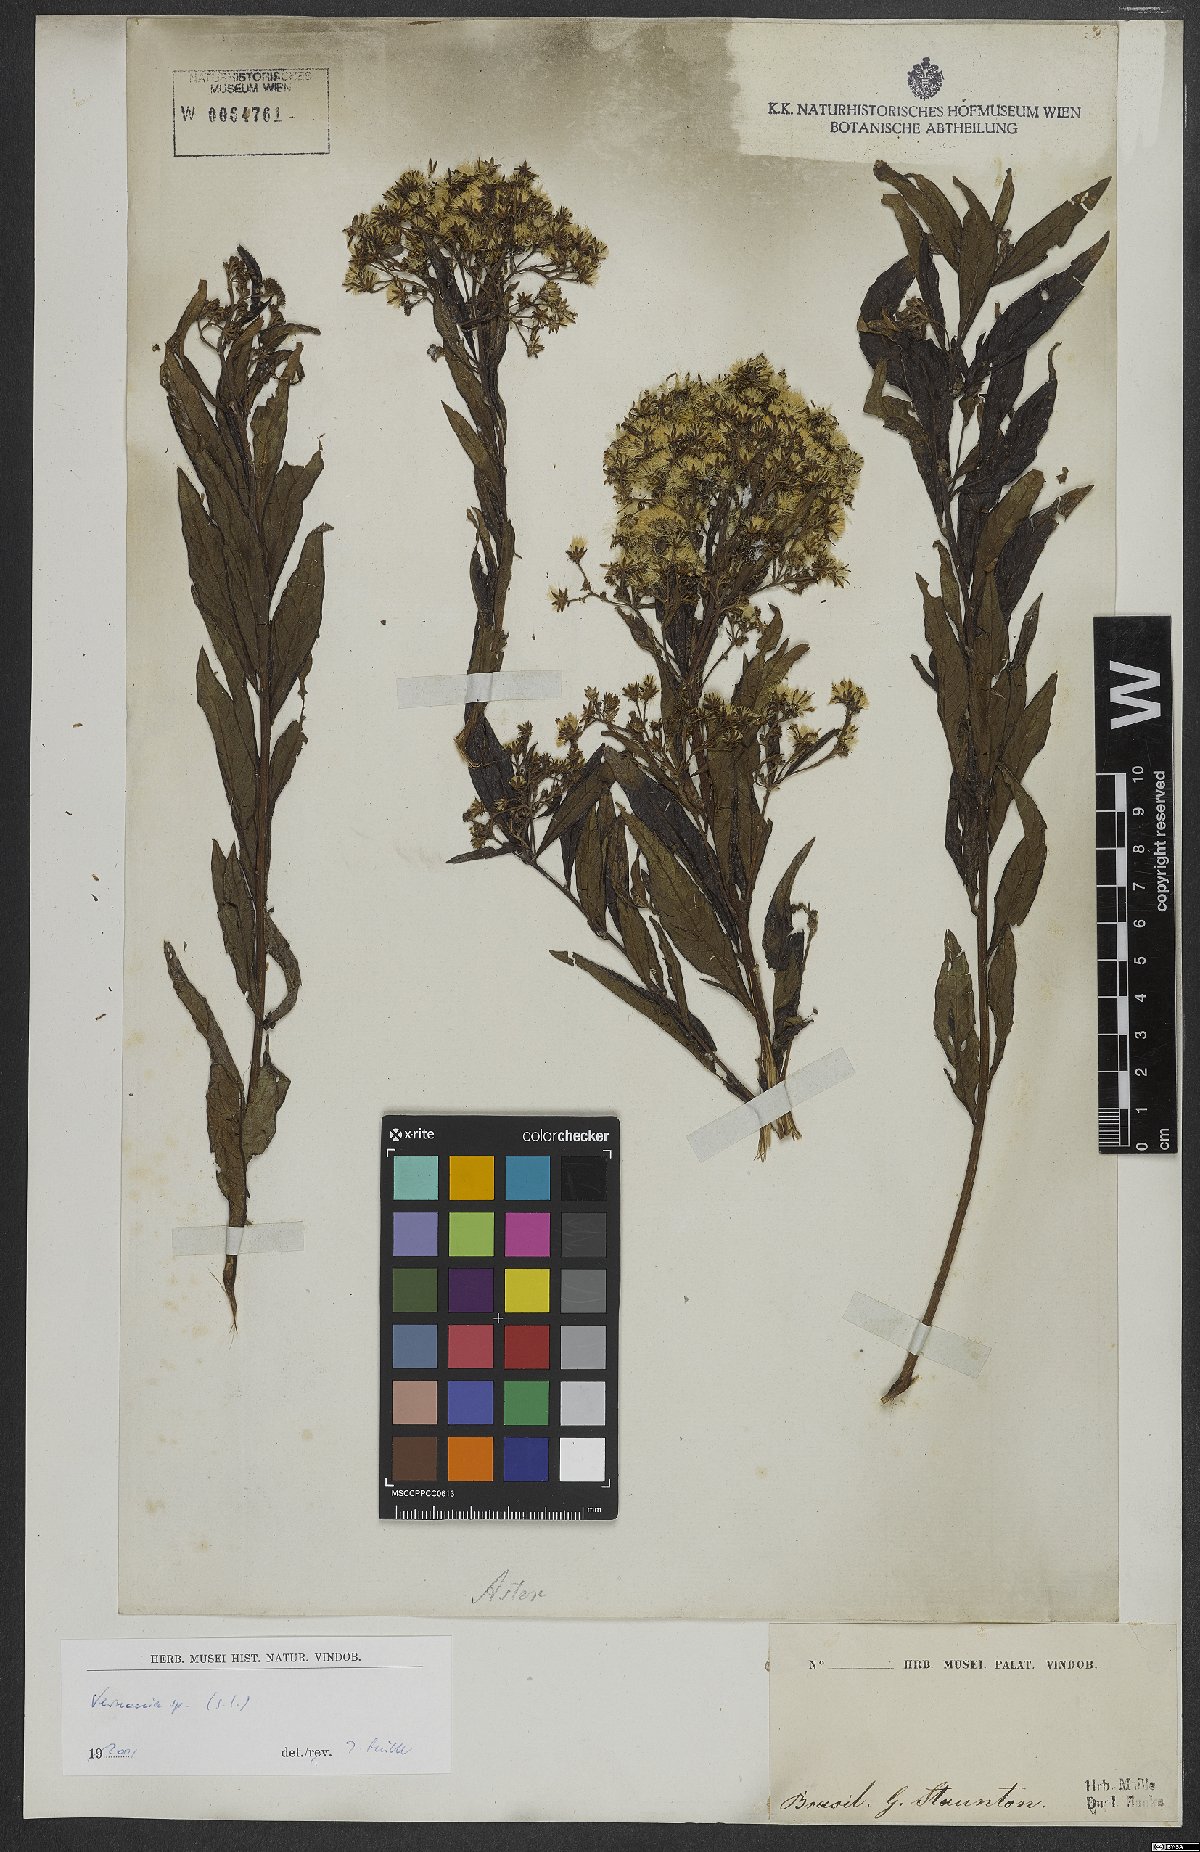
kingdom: Plantae
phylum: Tracheophyta
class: Magnoliopsida
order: Asterales
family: Asteraceae
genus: Vernonia
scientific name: Vernonia
